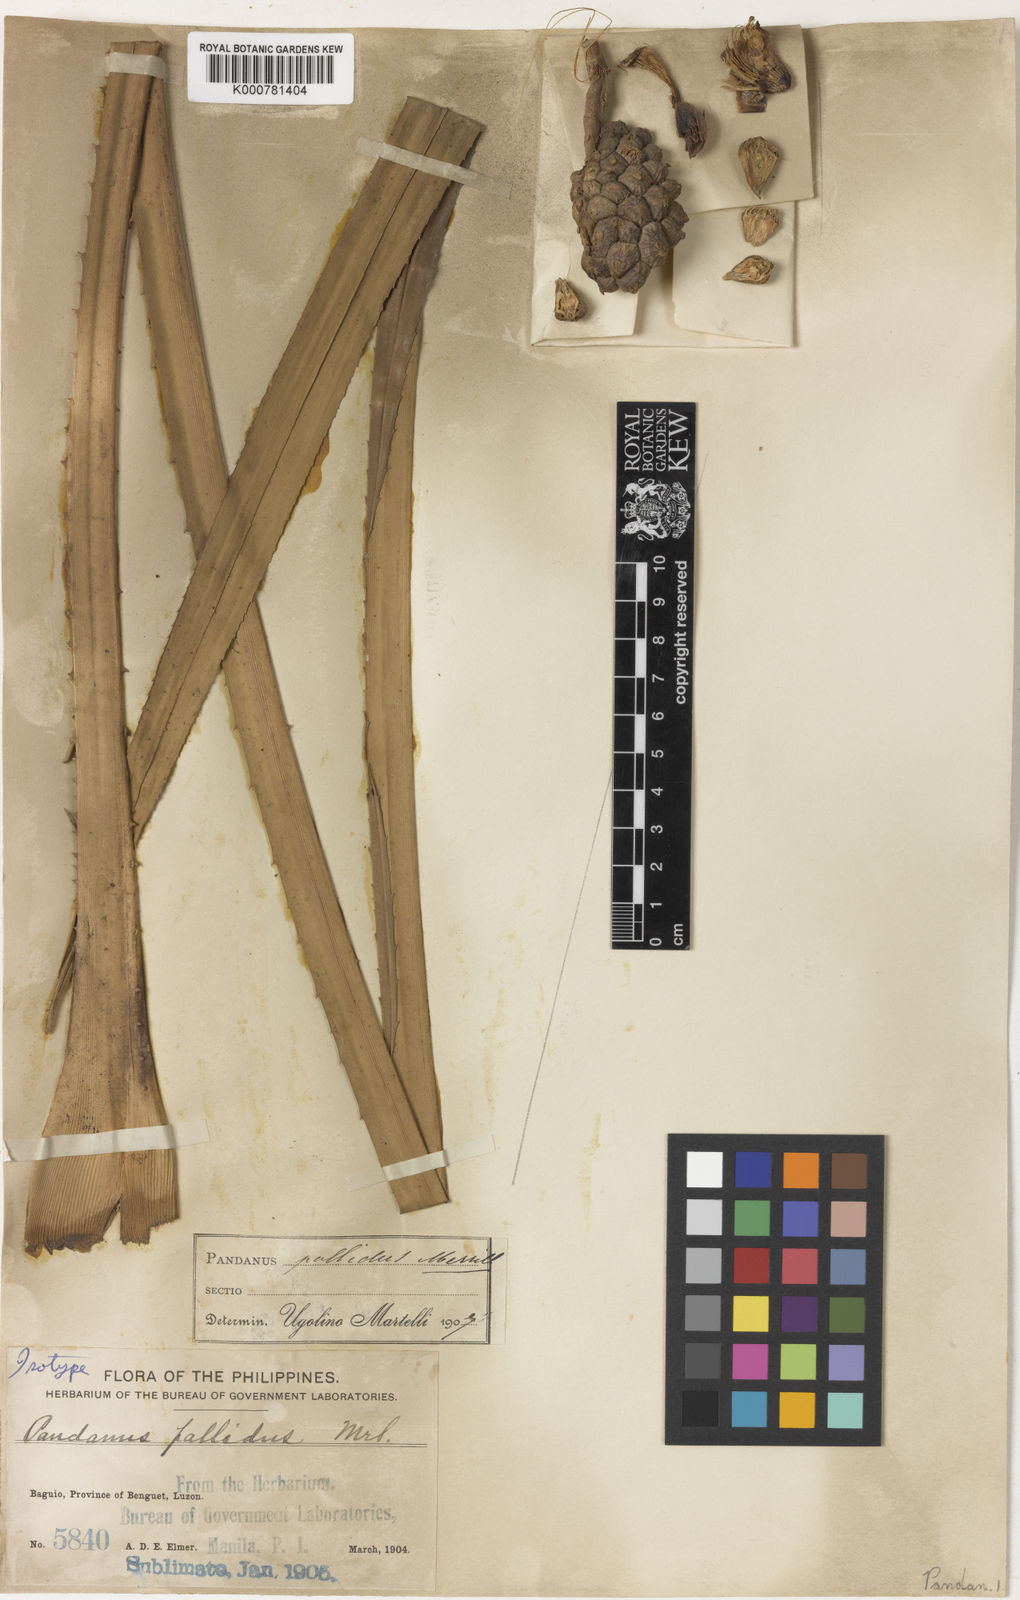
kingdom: Plantae
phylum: Tracheophyta
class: Liliopsida
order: Pandanales
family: Pandanaceae
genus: Pandanus
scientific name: Pandanus pallidus
